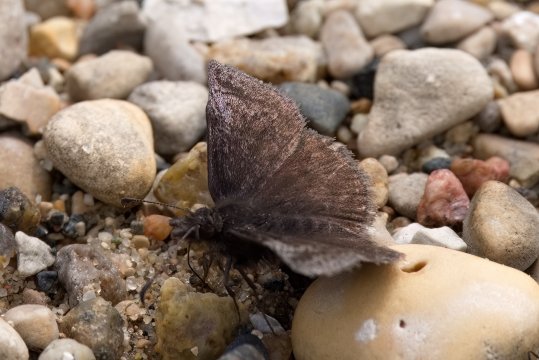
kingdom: Animalia
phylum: Arthropoda
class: Insecta
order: Lepidoptera
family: Hesperiidae
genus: Erynnis
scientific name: Erynnis icelus
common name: Dreamy Duskywing
